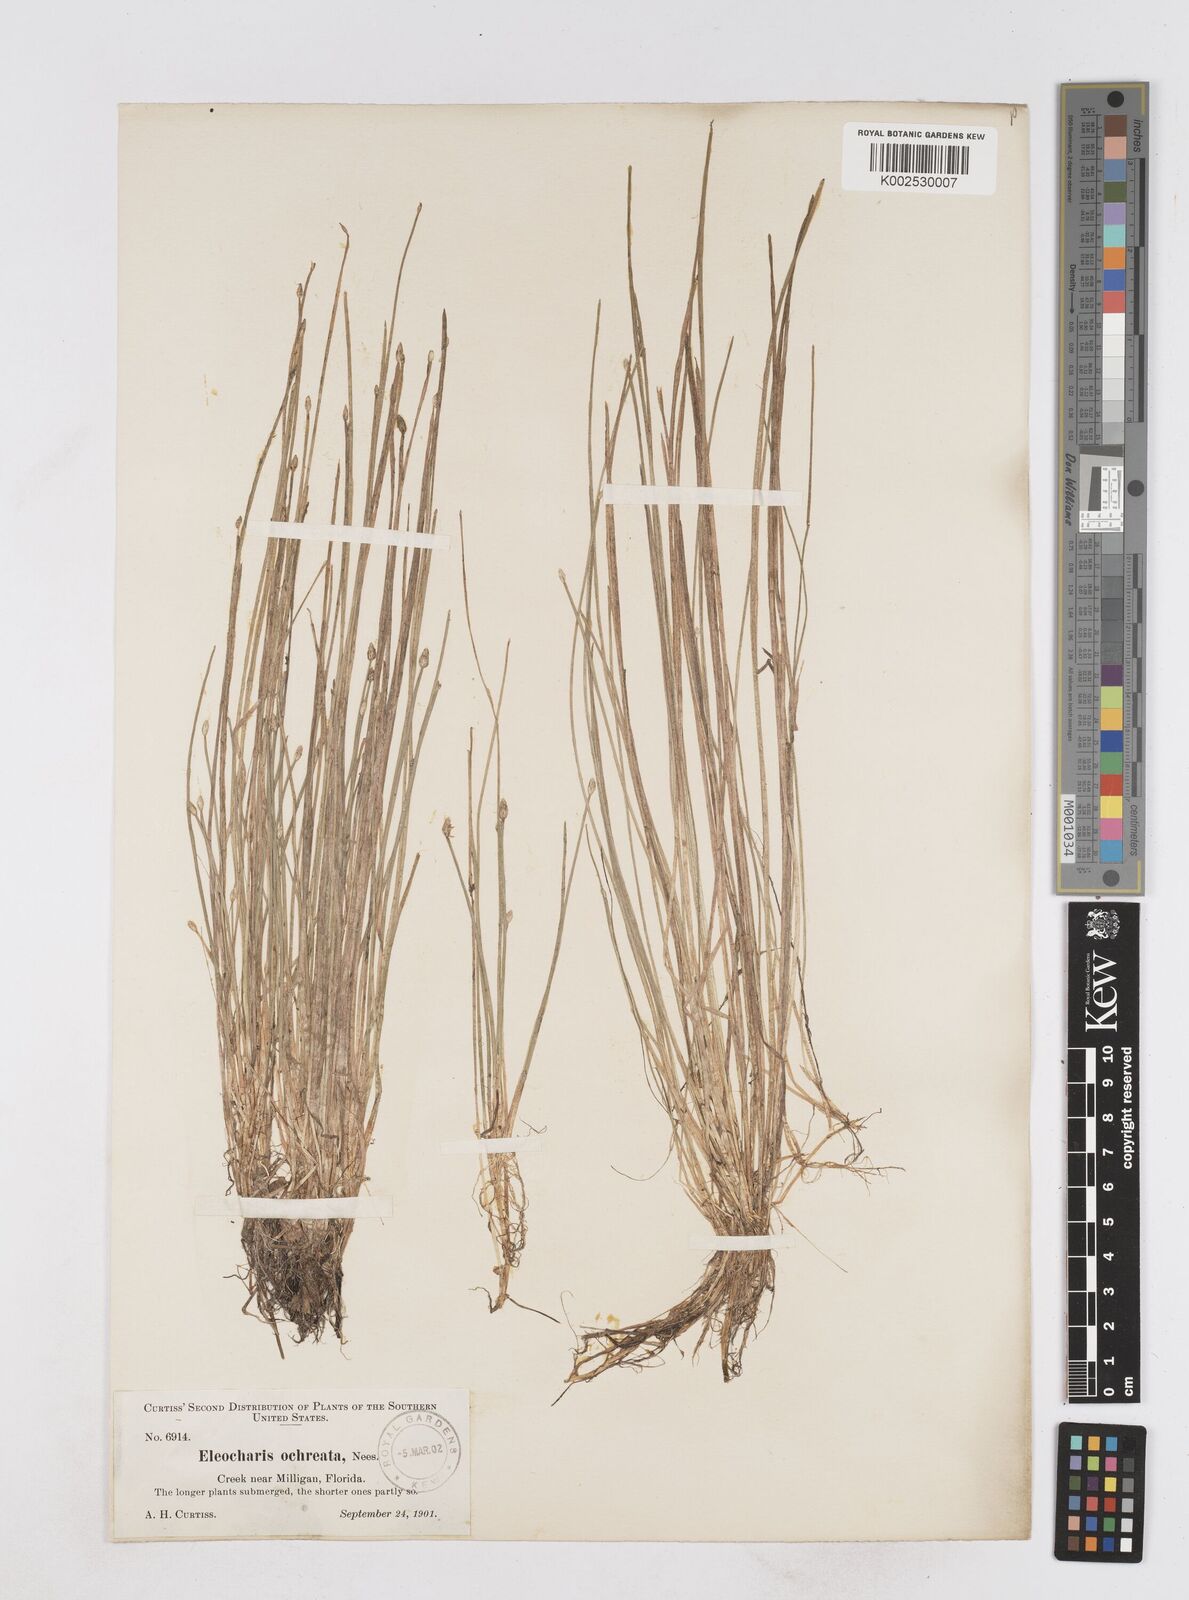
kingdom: Plantae
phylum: Tracheophyta
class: Liliopsida
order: Poales
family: Cyperaceae
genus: Eleocharis
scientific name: Eleocharis flavescens
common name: Yellow spikerush
